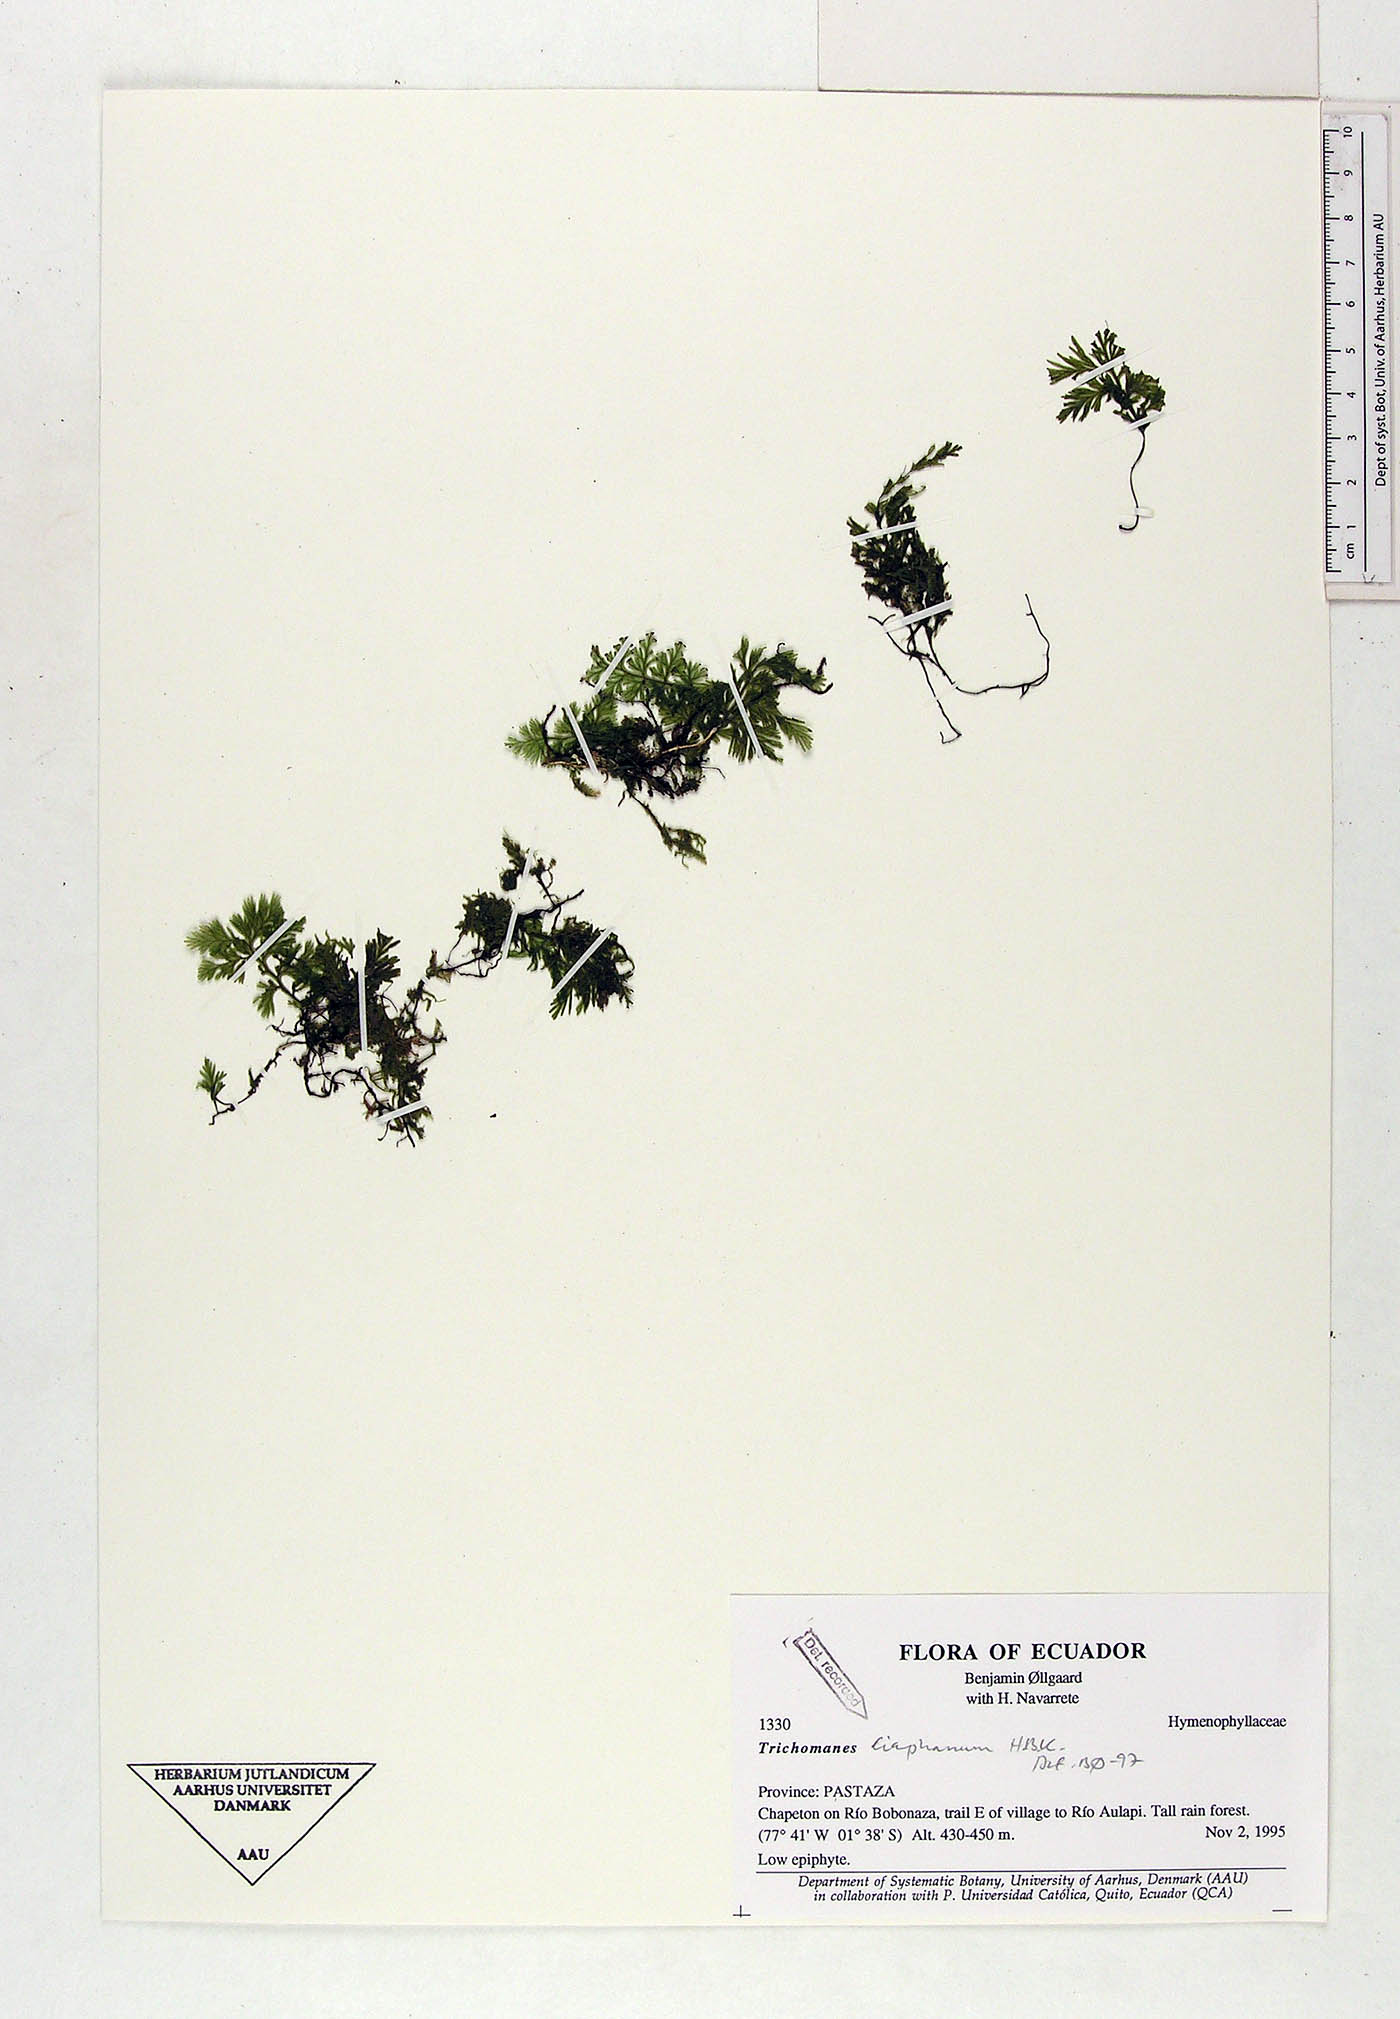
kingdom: Plantae
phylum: Tracheophyta
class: Polypodiopsida
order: Hymenophyllales
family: Hymenophyllaceae
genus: Polyphlebium
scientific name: Polyphlebium diaphanum
